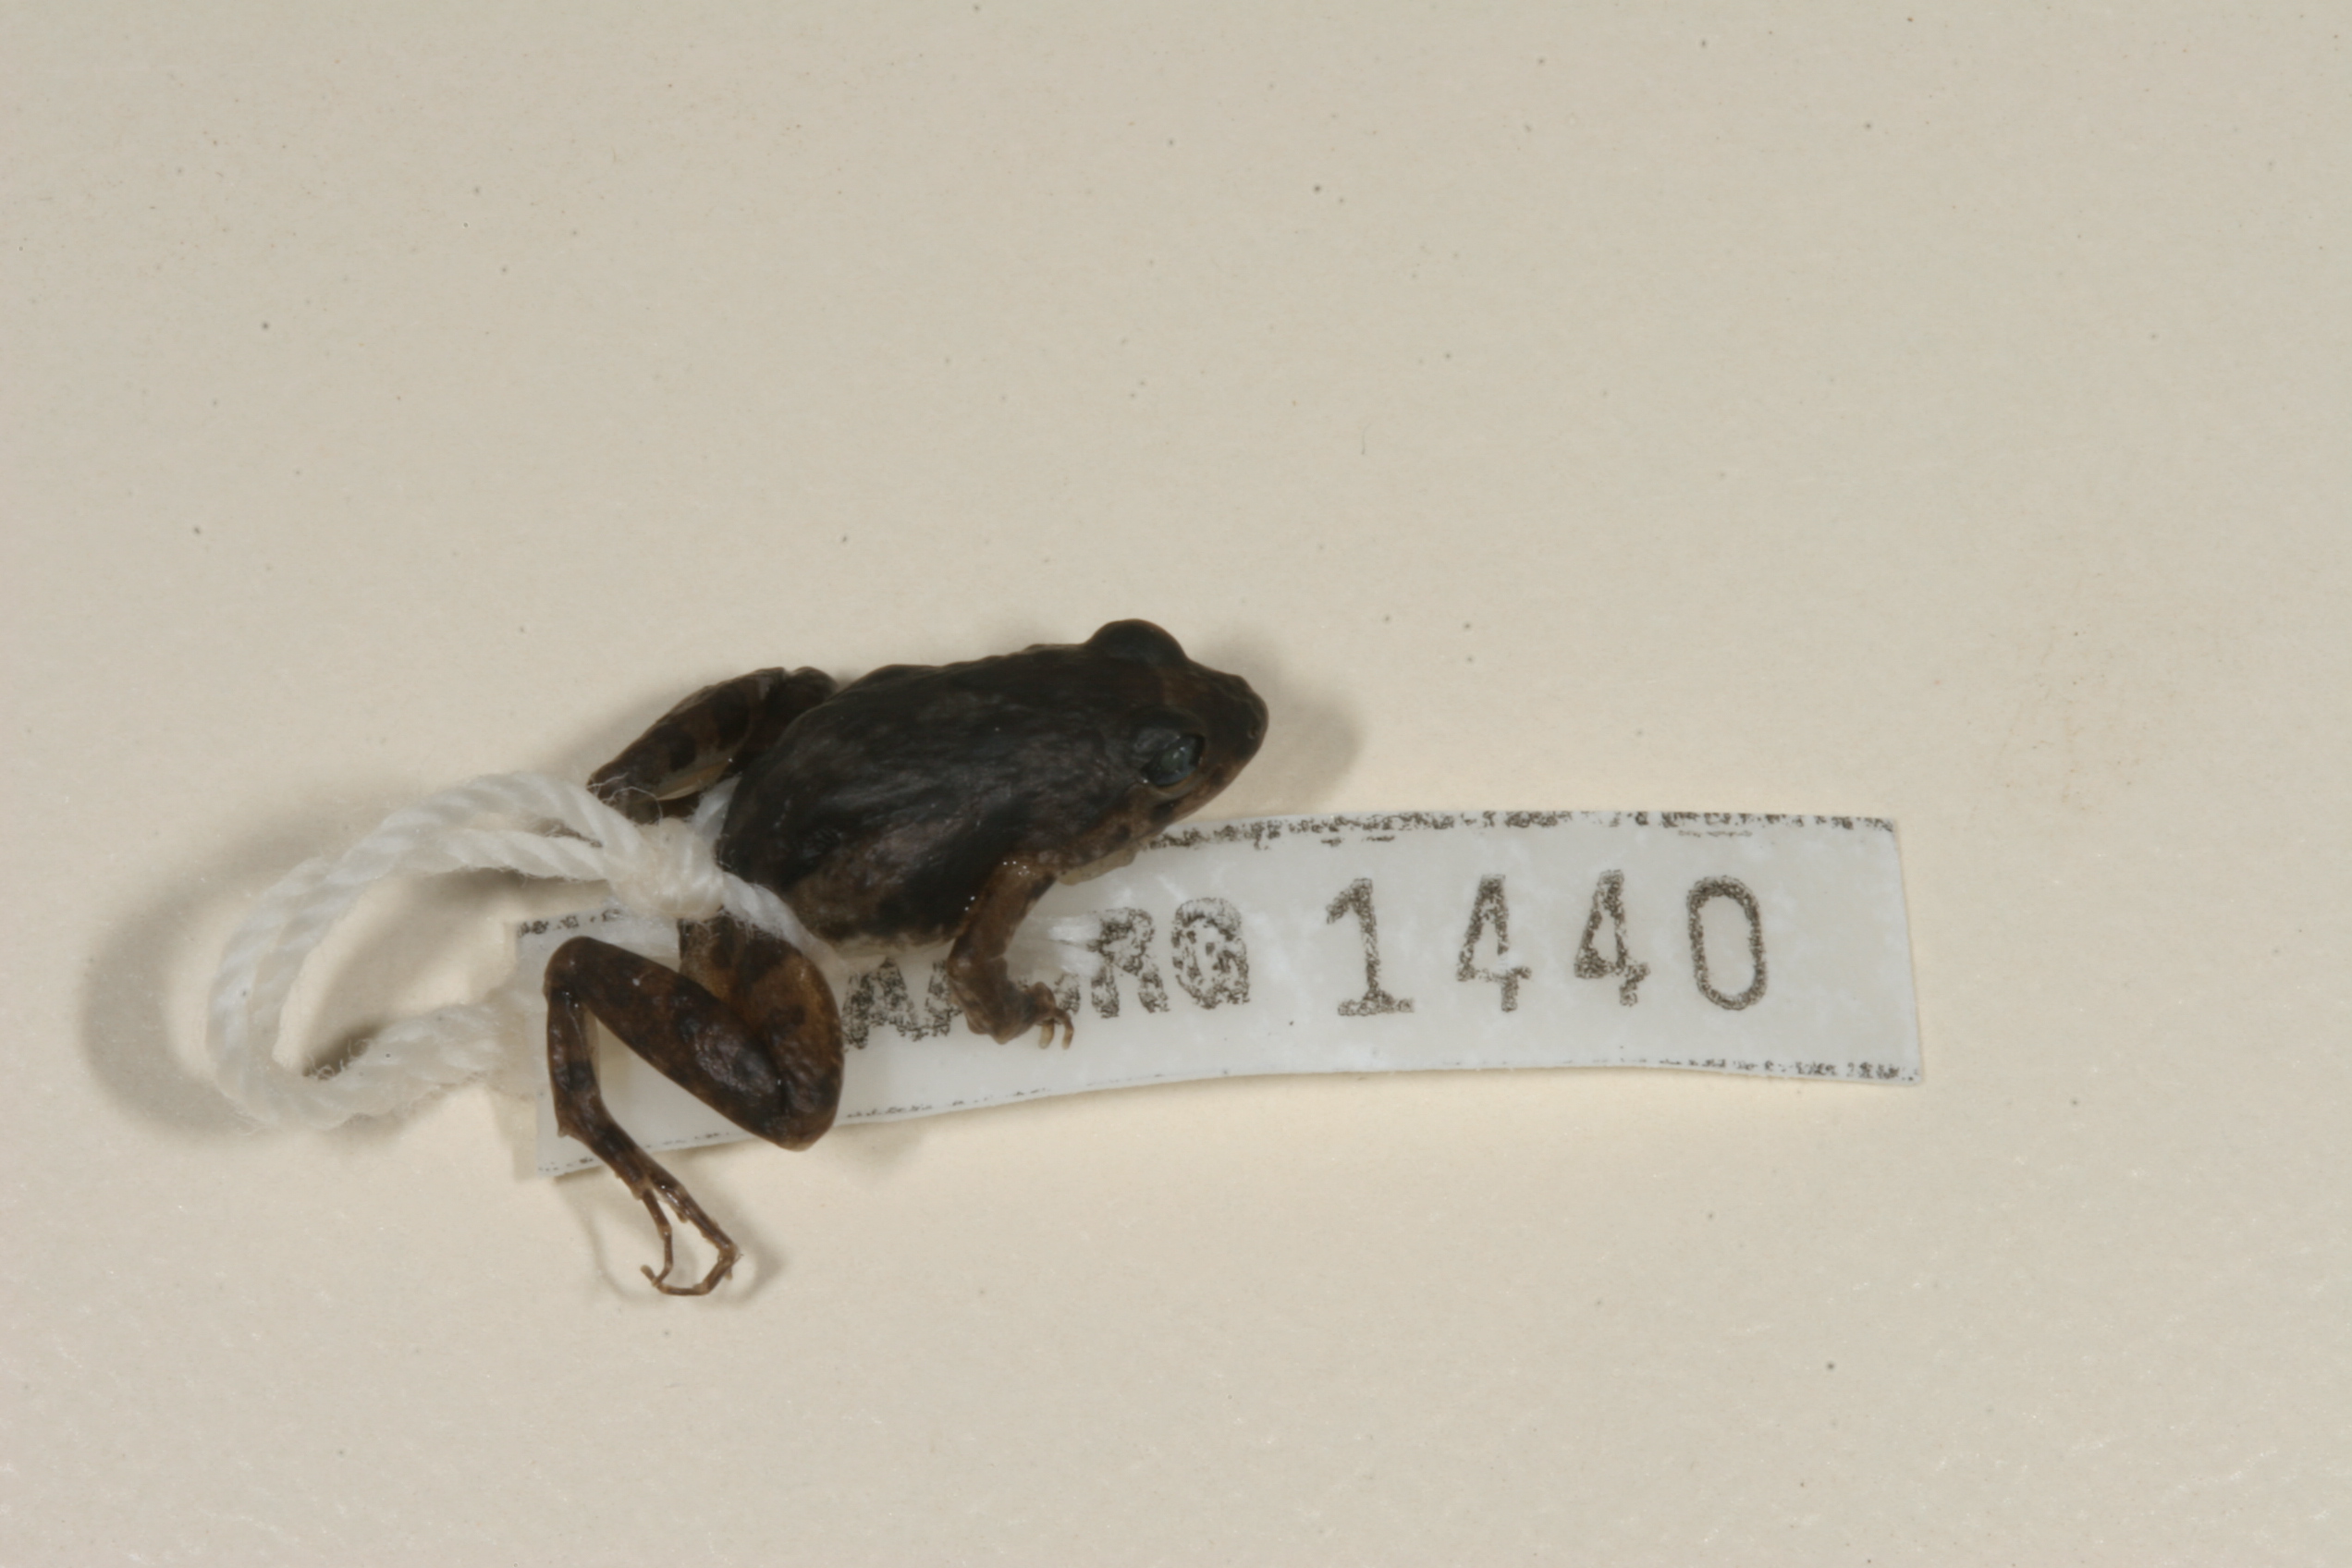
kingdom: Animalia
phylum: Chordata
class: Amphibia
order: Anura
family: Phrynobatrachidae
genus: Phrynobatrachus
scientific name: Phrynobatrachus mababiensis
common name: Dwarf puddle frog
